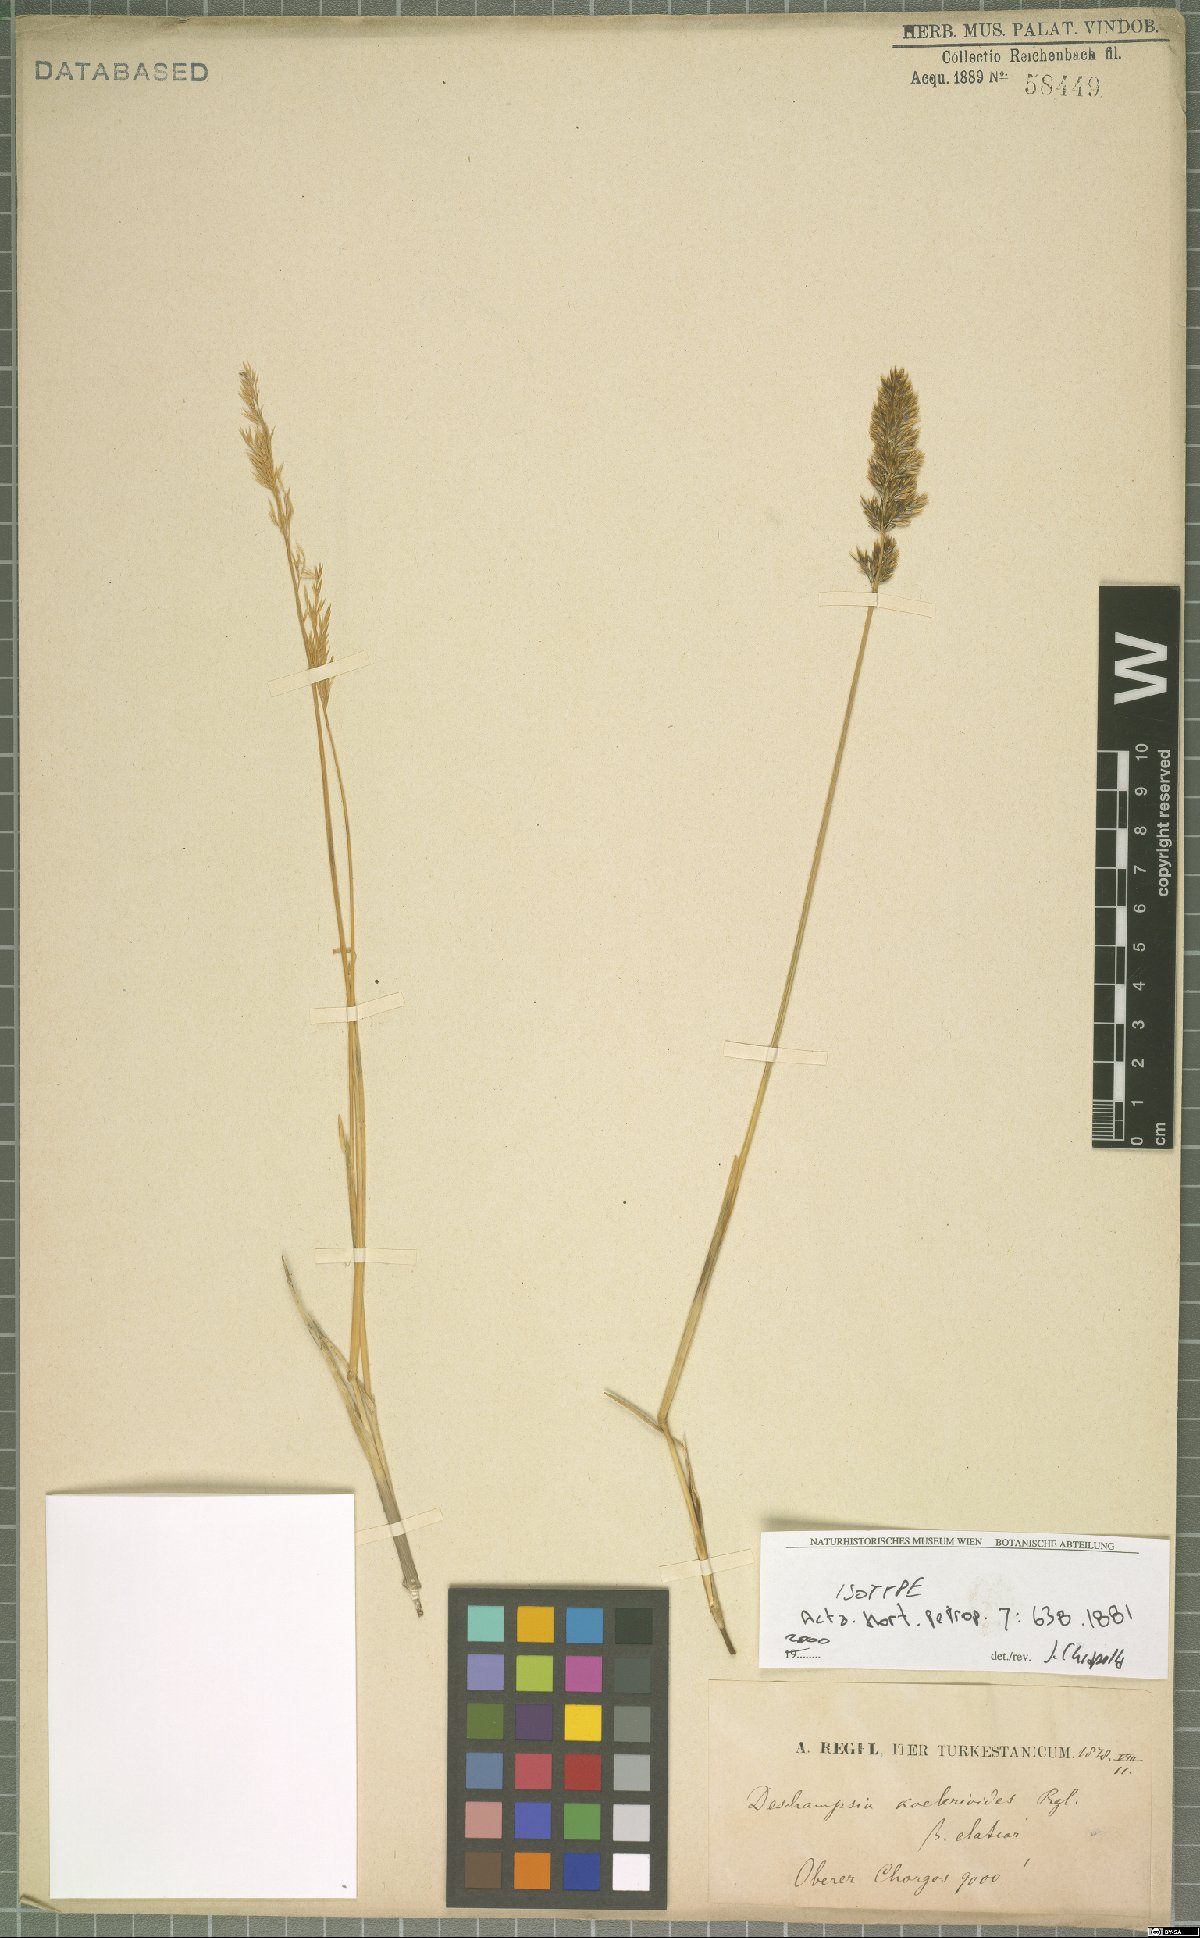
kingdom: Plantae
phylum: Tracheophyta
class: Liliopsida
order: Poales
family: Poaceae
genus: Deschampsia
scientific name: Deschampsia koelerioides
